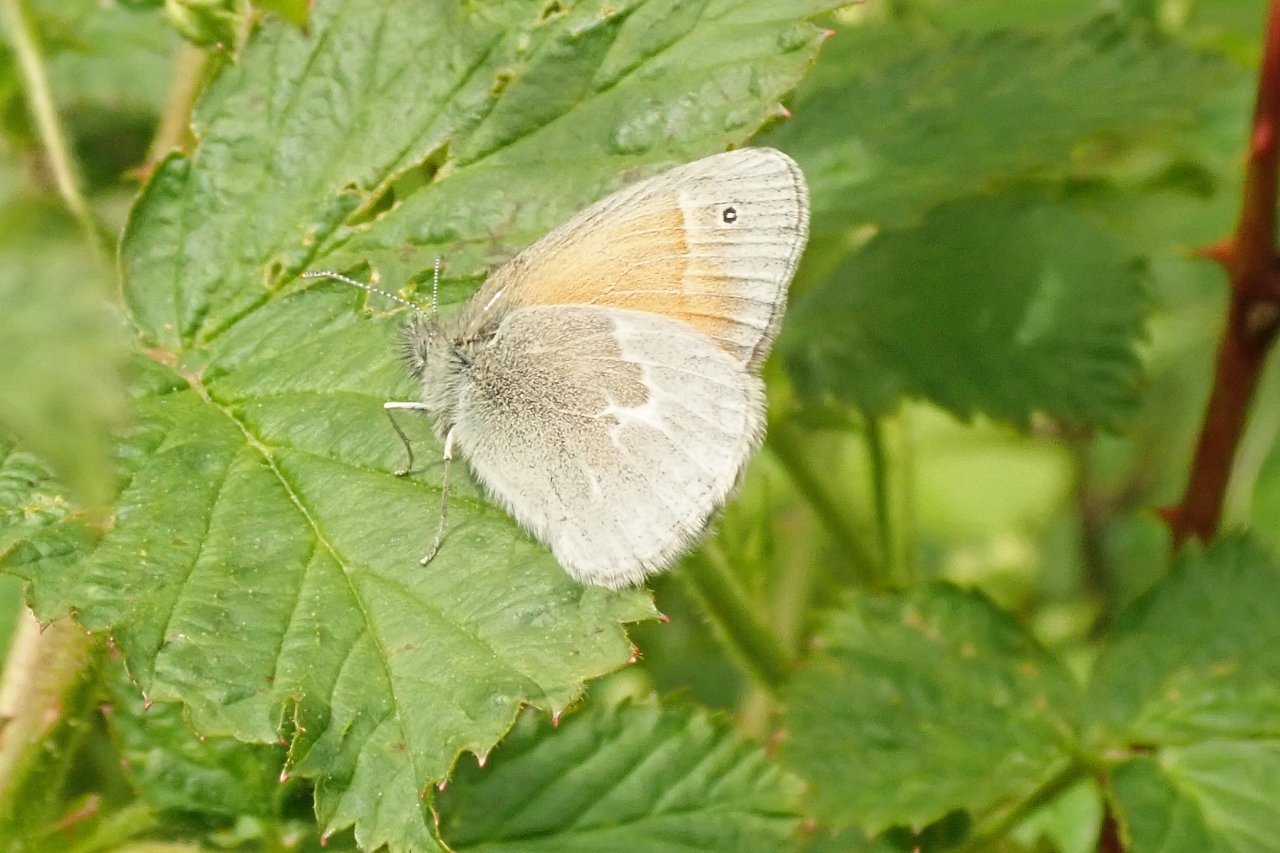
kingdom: Animalia
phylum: Arthropoda
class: Insecta
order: Lepidoptera
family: Nymphalidae
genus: Coenonympha
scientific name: Coenonympha tullia
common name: Large Heath
